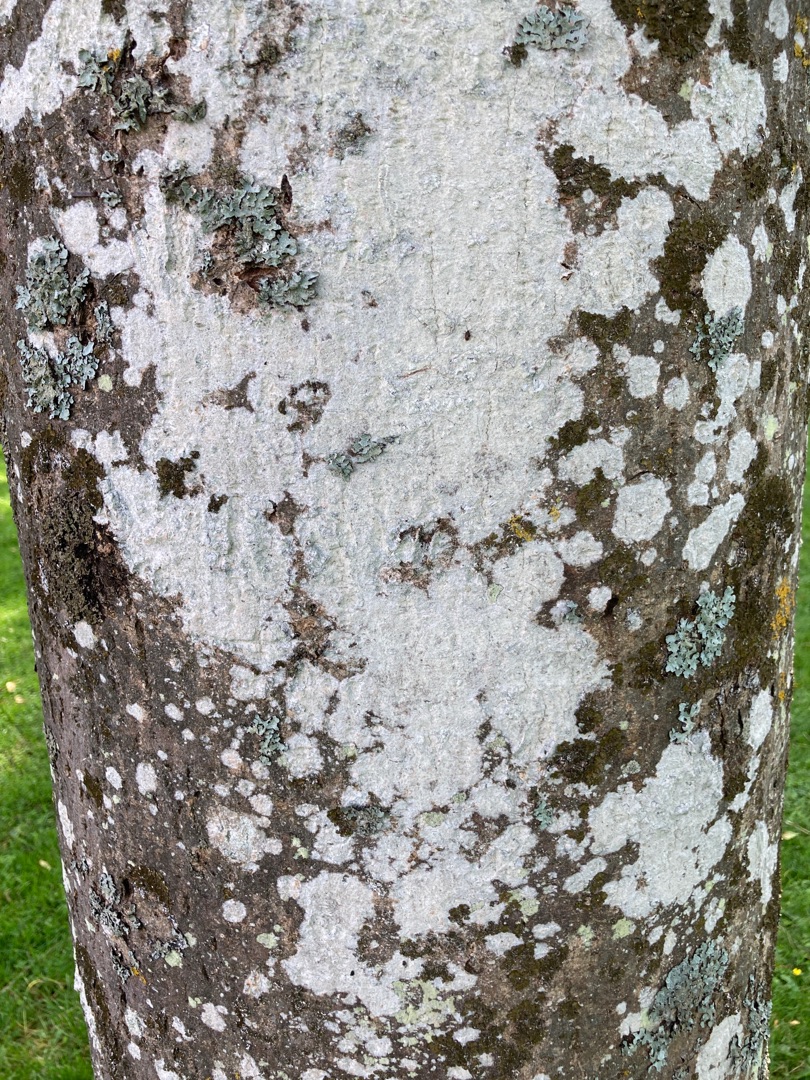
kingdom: Fungi
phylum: Ascomycota
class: Lecanoromycetes
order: Ostropales
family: Phlyctidaceae
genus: Phlyctis
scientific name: Phlyctis argena
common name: Almindelig sølvlav
